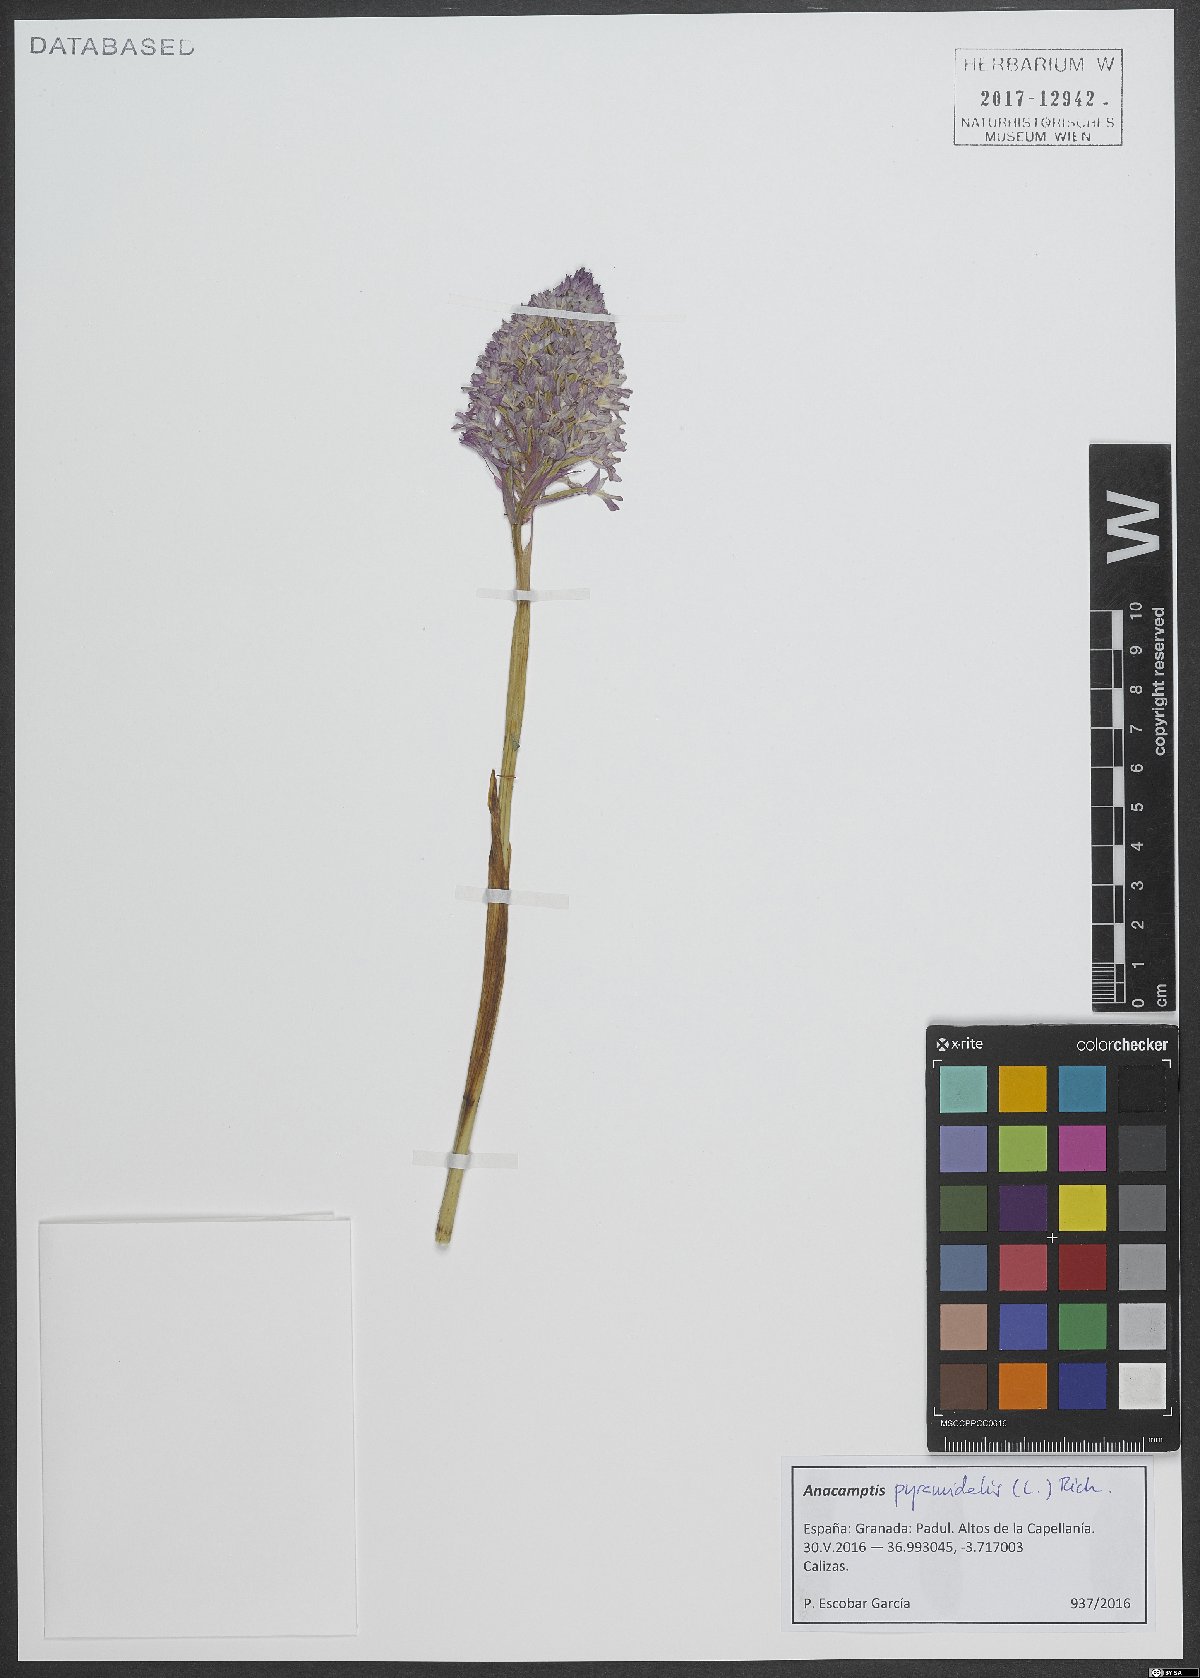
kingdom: Plantae
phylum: Tracheophyta
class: Liliopsida
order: Asparagales
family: Orchidaceae
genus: Anacamptis
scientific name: Anacamptis pyramidalis
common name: Pyramidal orchid
